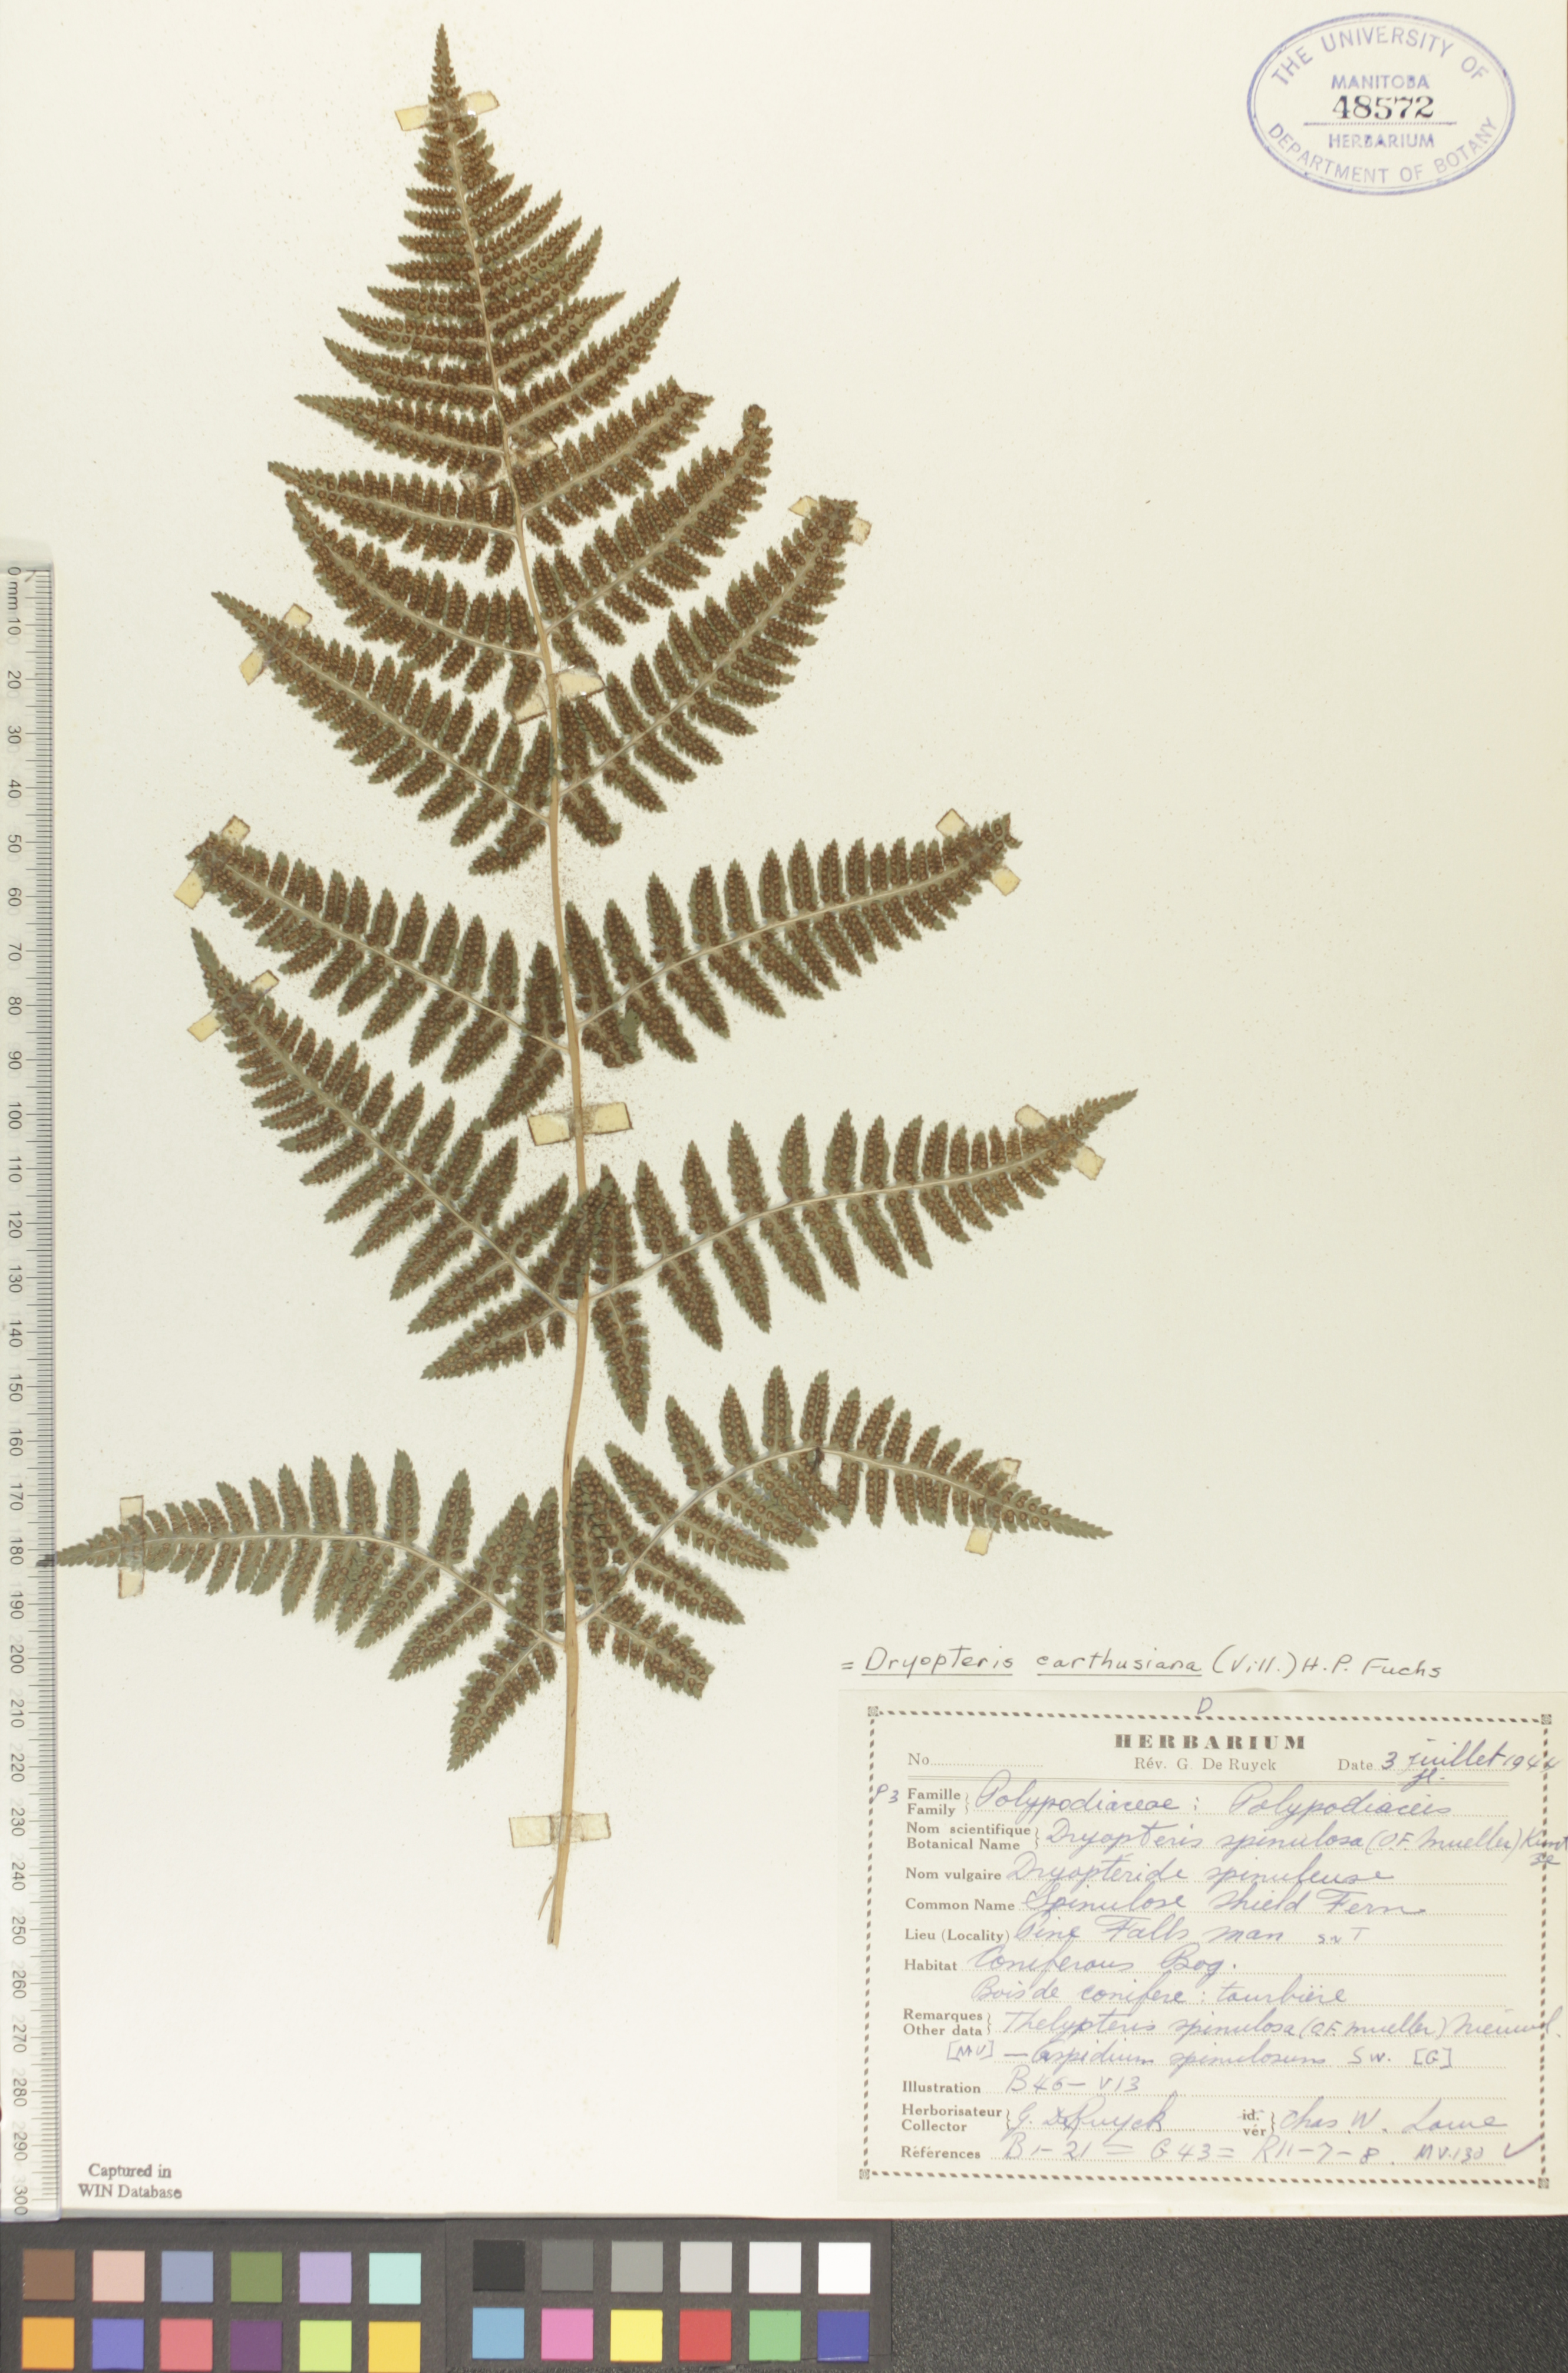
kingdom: Plantae
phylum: Tracheophyta
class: Polypodiopsida
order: Polypodiales
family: Dryopteridaceae
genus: Dryopteris
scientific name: Dryopteris carthusiana
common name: Narrow buckler-fern
